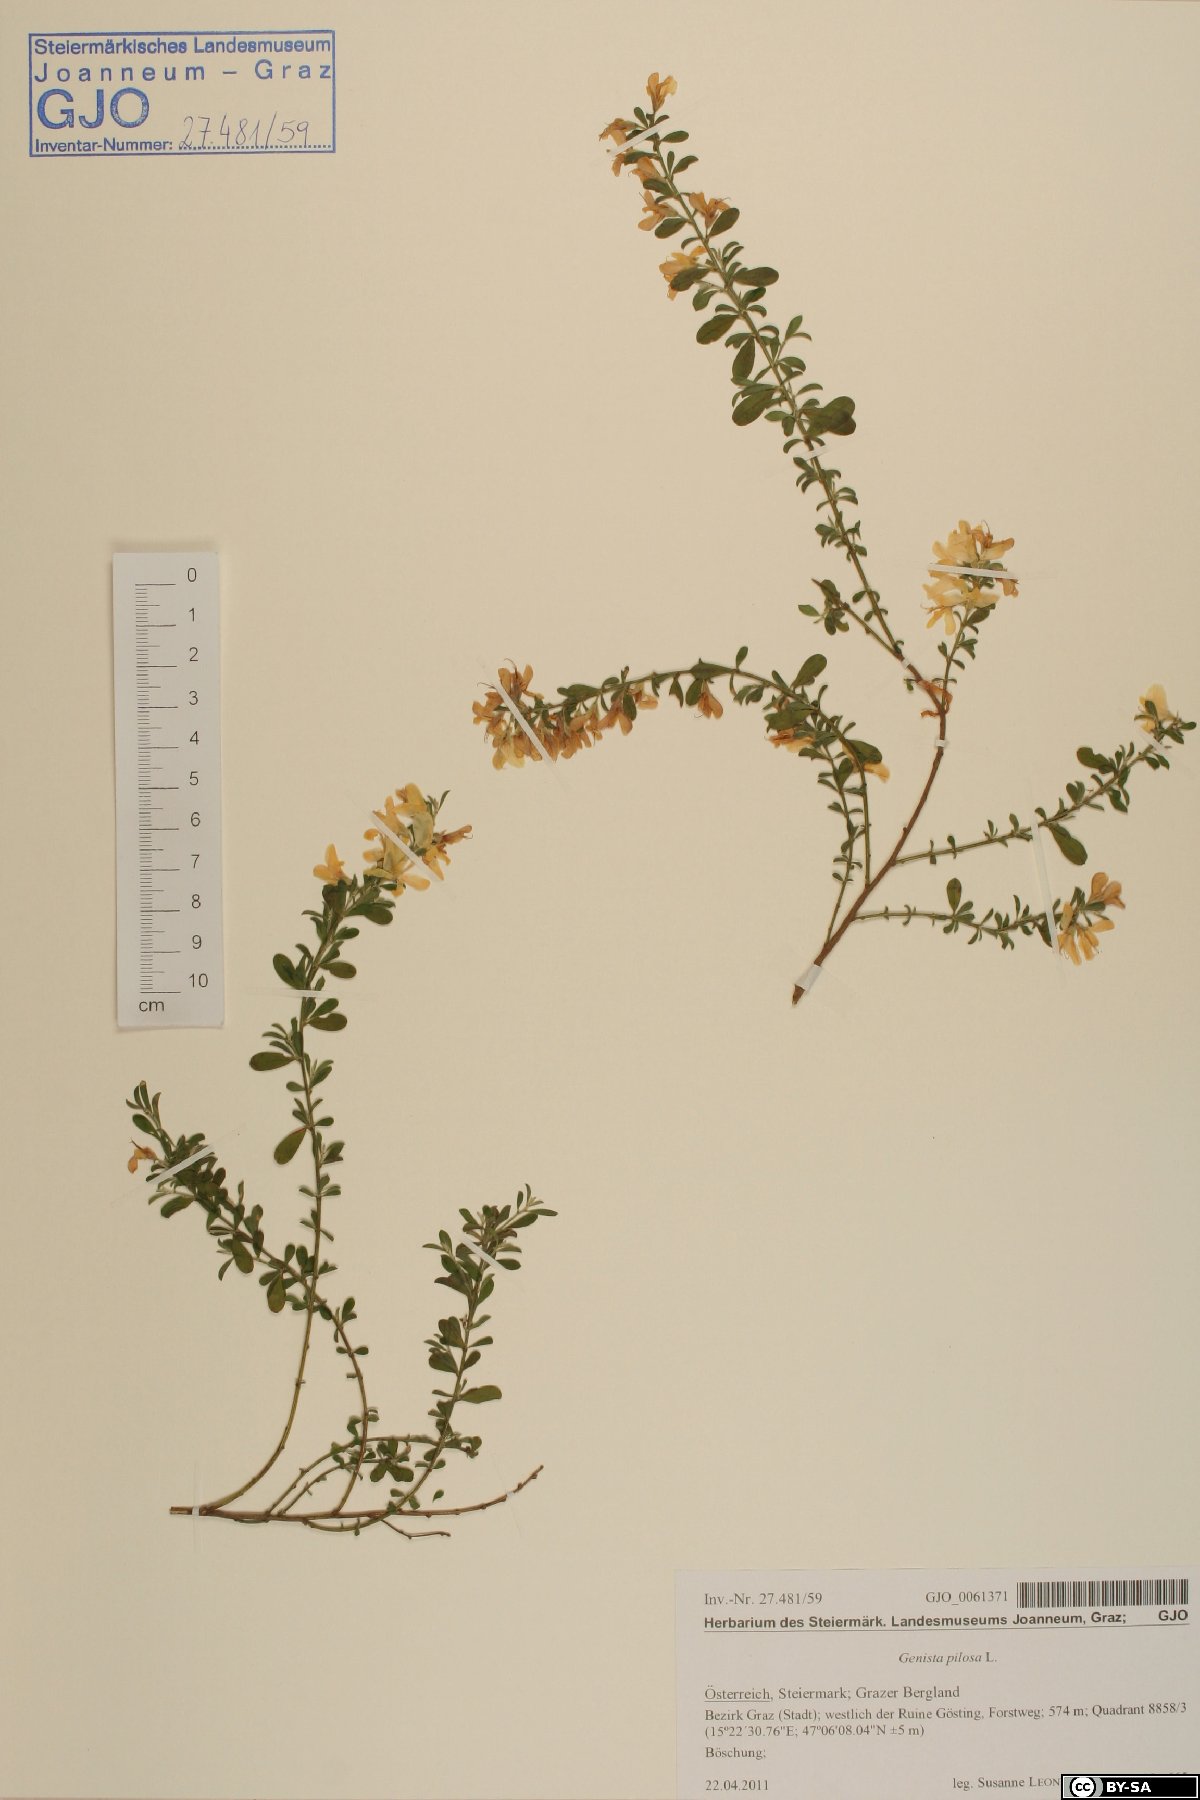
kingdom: Plantae
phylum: Tracheophyta
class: Magnoliopsida
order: Fabales
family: Fabaceae
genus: Genista
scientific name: Genista pilosa
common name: Hairy greenweed
